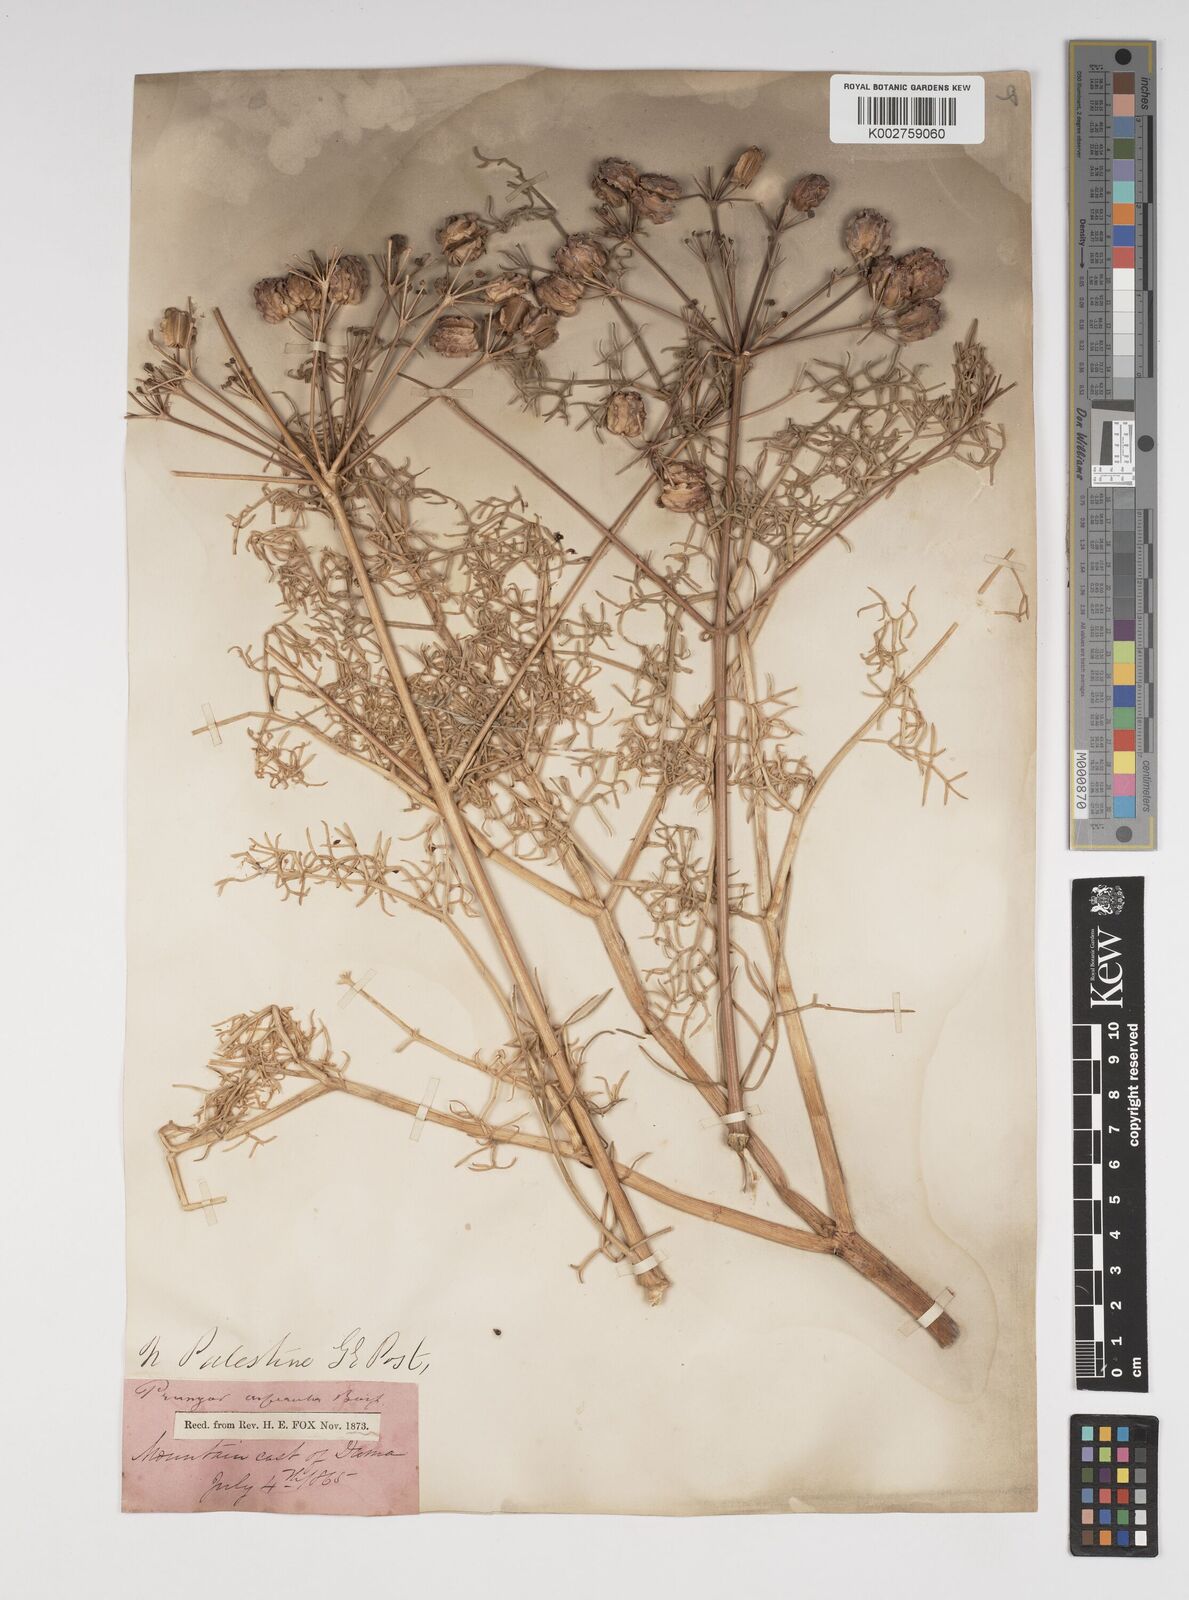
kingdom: Plantae
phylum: Tracheophyta
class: Magnoliopsida
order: Apiales
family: Apiaceae
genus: Prangos
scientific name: Prangos asperula
